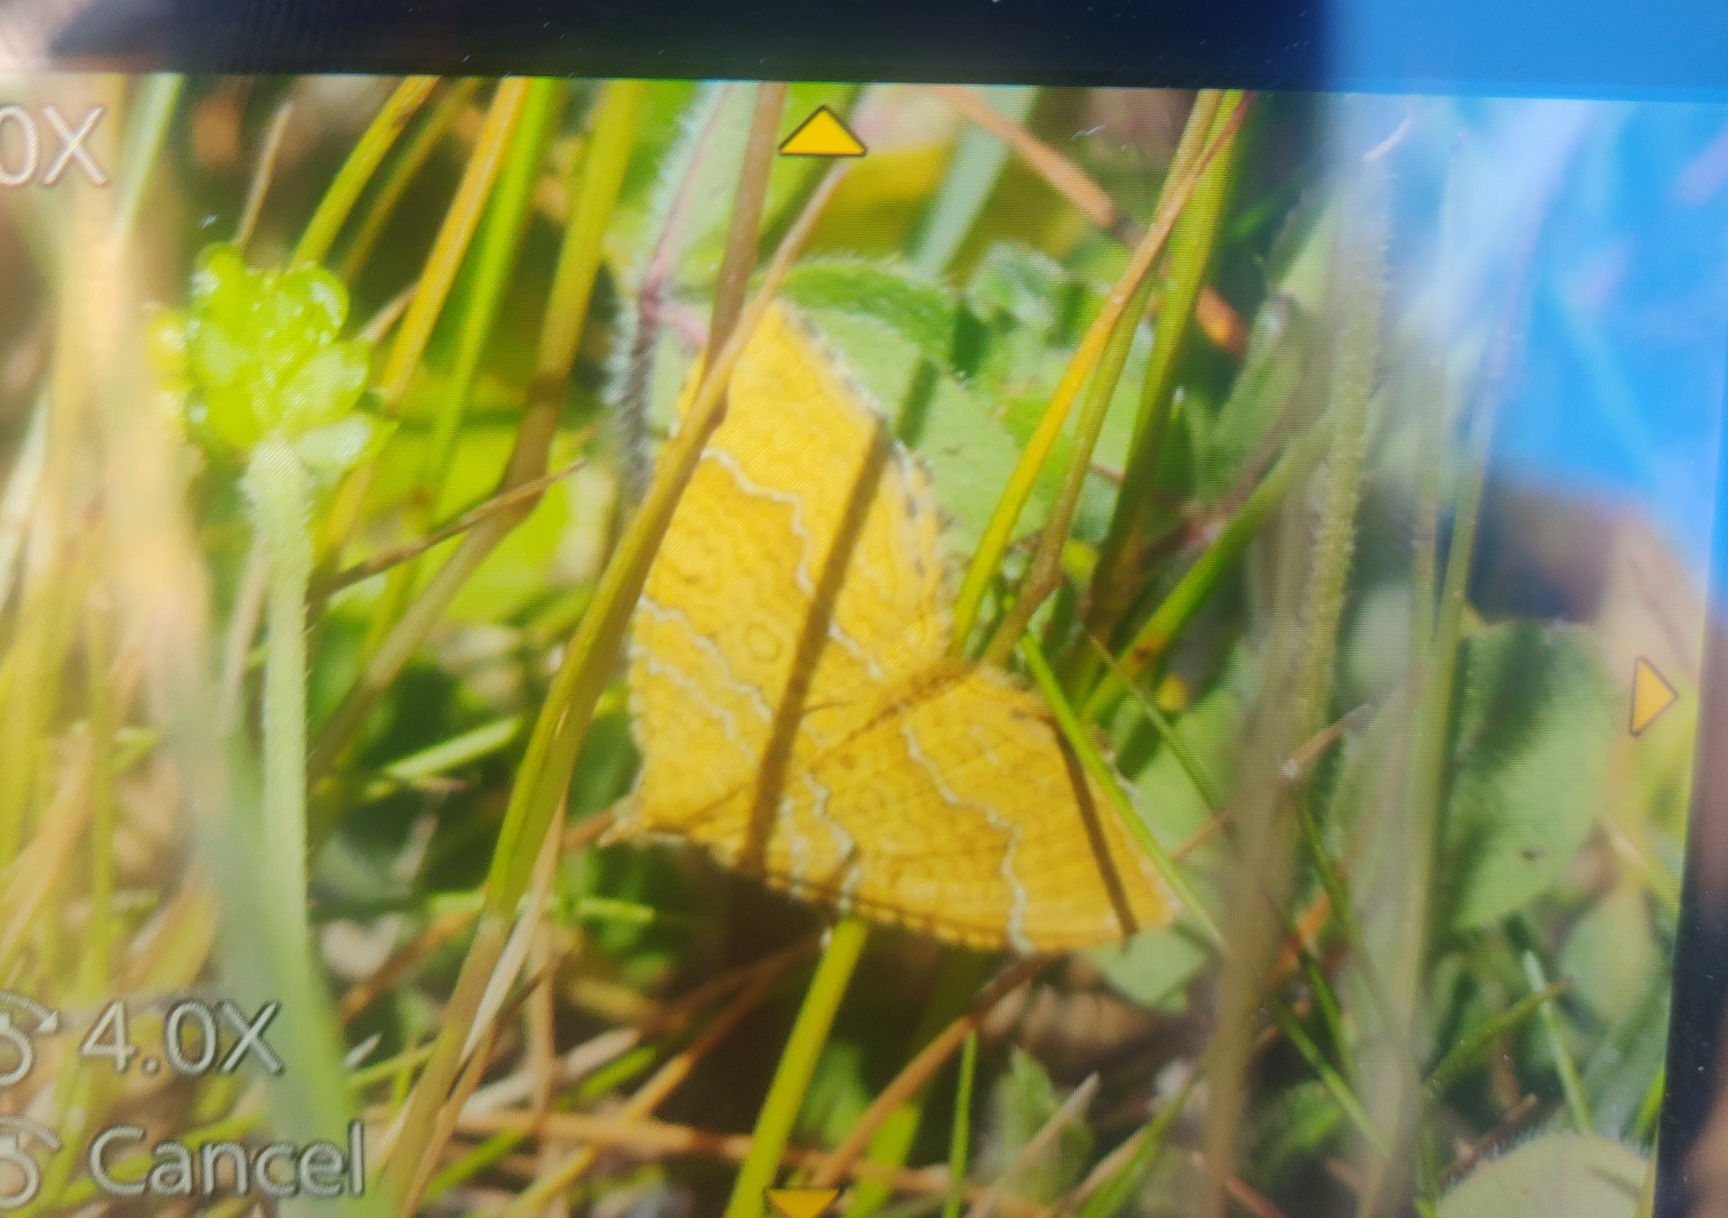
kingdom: Animalia
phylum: Arthropoda
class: Insecta
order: Lepidoptera
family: Geometridae
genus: Camptogramma
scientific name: Camptogramma bilineata
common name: Okkergul bladmåler
